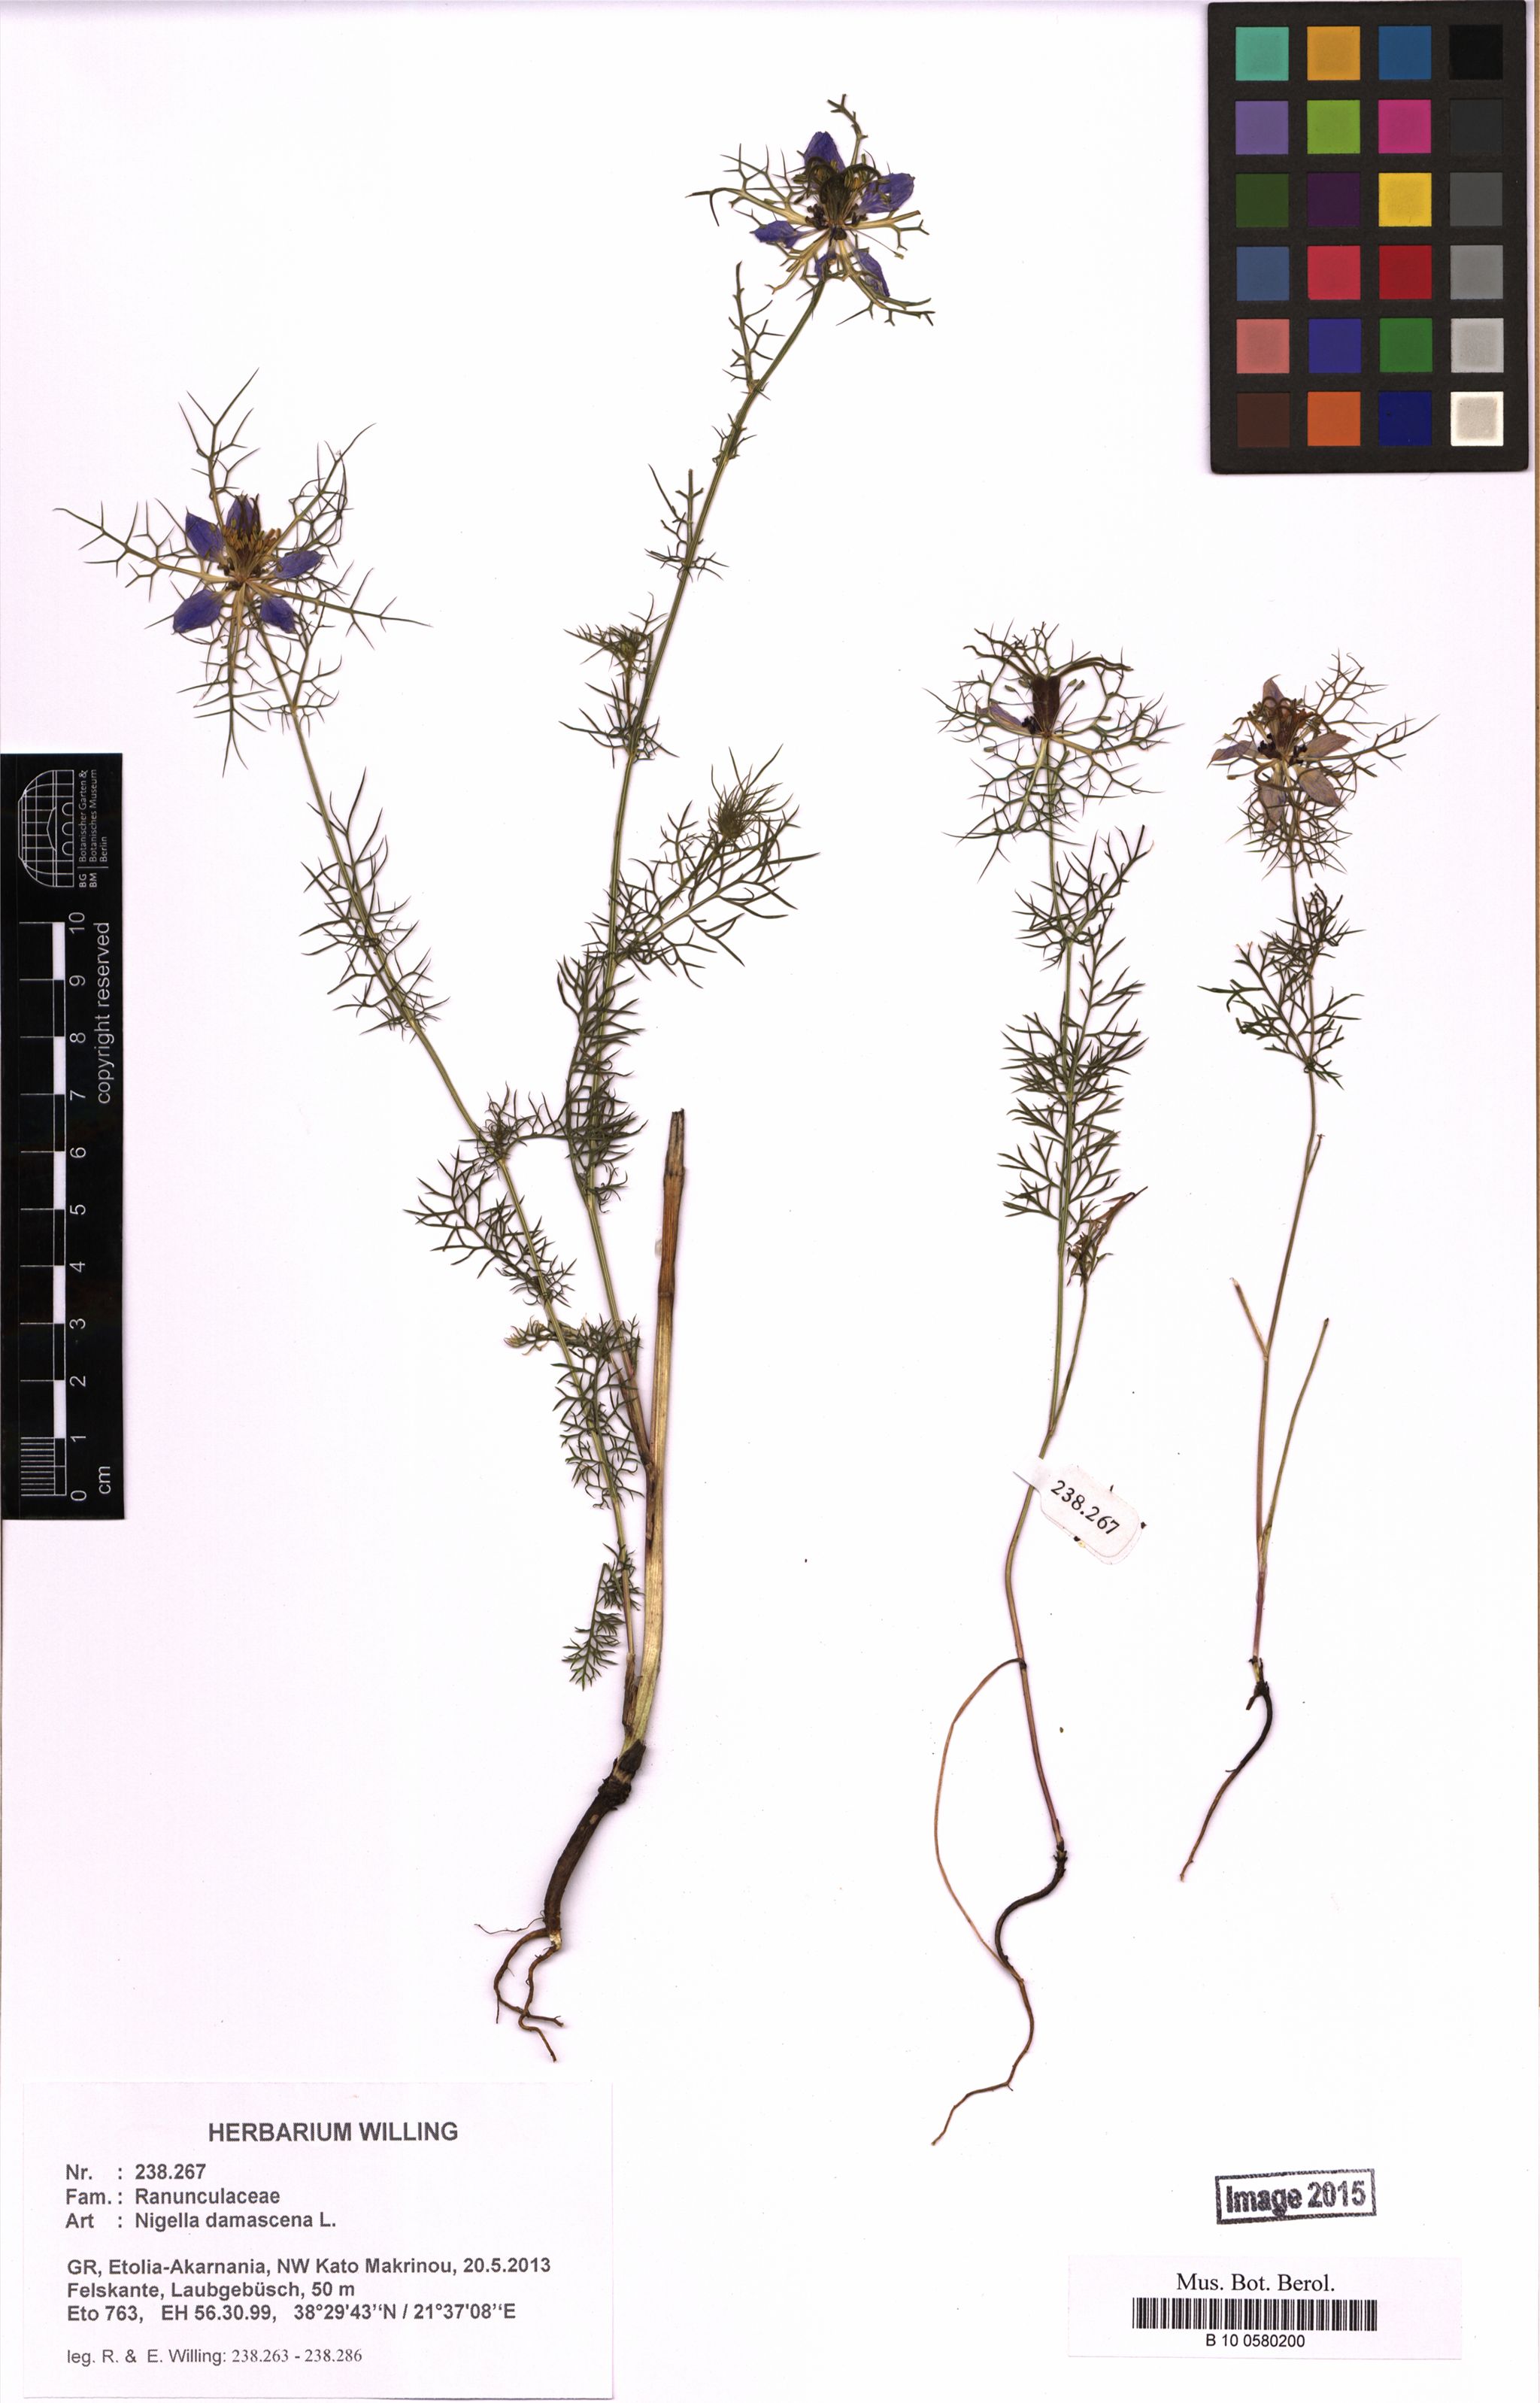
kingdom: Plantae
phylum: Tracheophyta
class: Magnoliopsida
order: Ranunculales
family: Ranunculaceae
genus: Nigella
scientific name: Nigella damascena
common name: Love-in-a-mist
